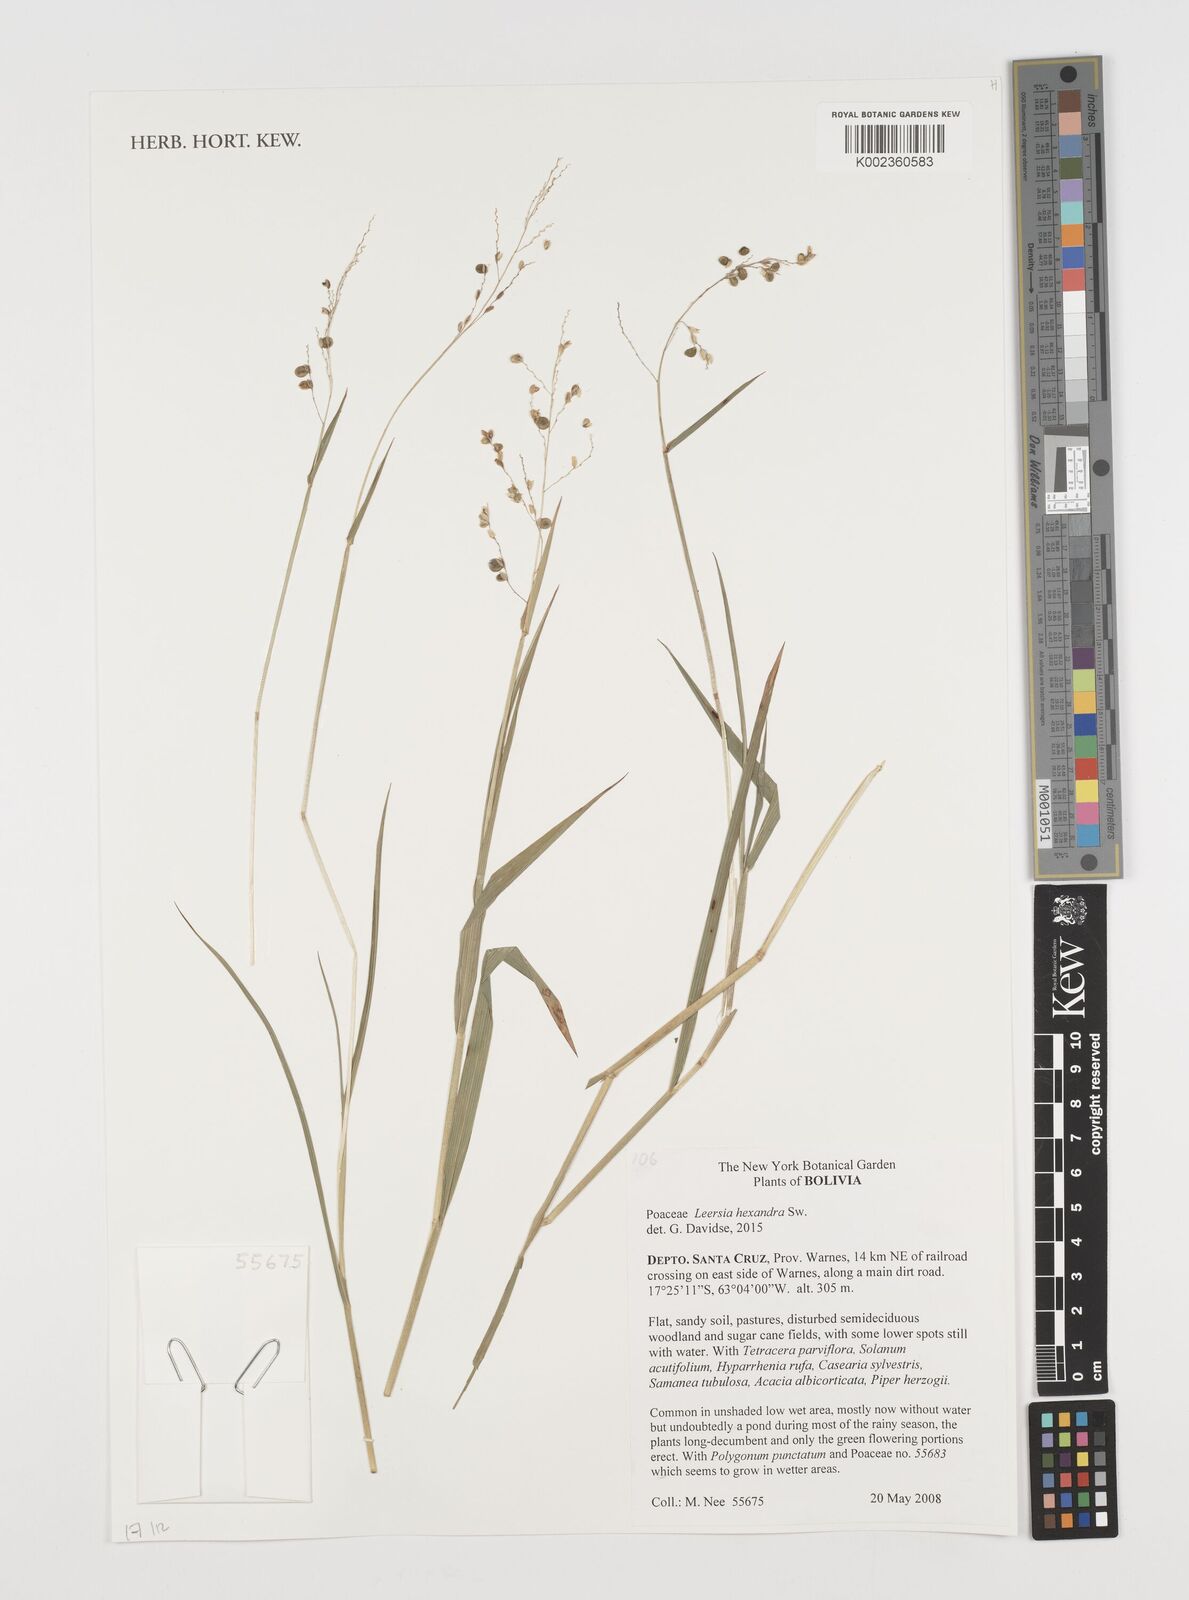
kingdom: Plantae
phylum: Tracheophyta
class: Liliopsida
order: Poales
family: Poaceae
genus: Leersia
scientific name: Leersia hexandra
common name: Southern cut grass
